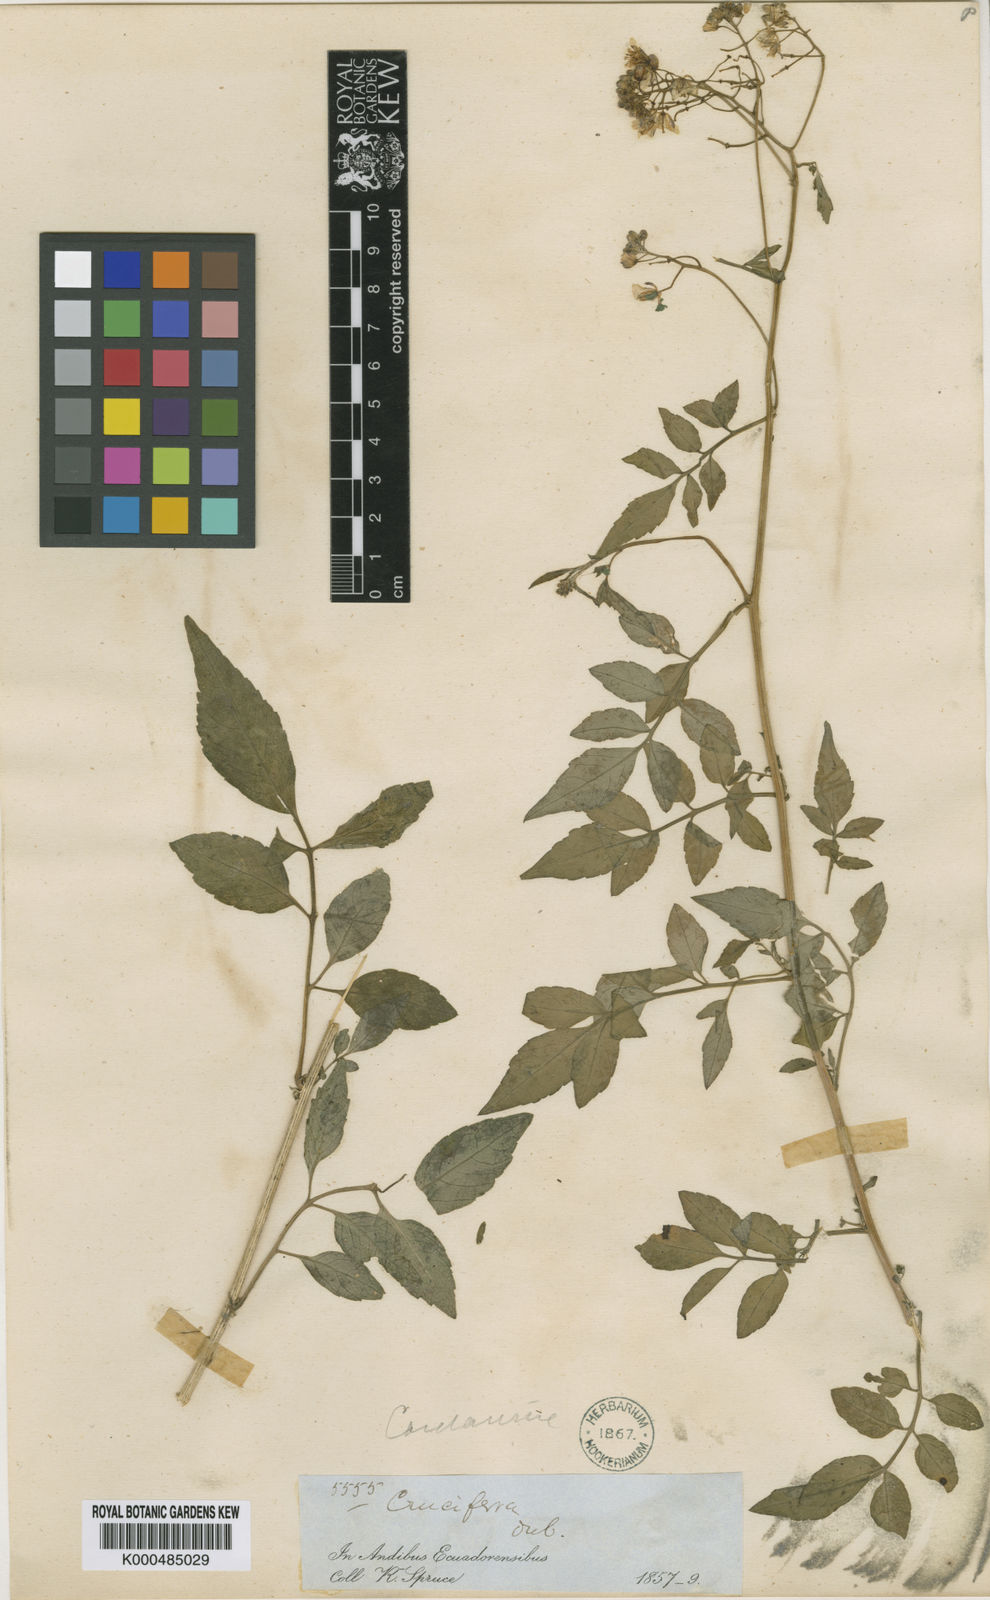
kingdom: Plantae
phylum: Tracheophyta
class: Magnoliopsida
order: Brassicales
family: Brassicaceae
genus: Cardamine
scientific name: Cardamine ovata
